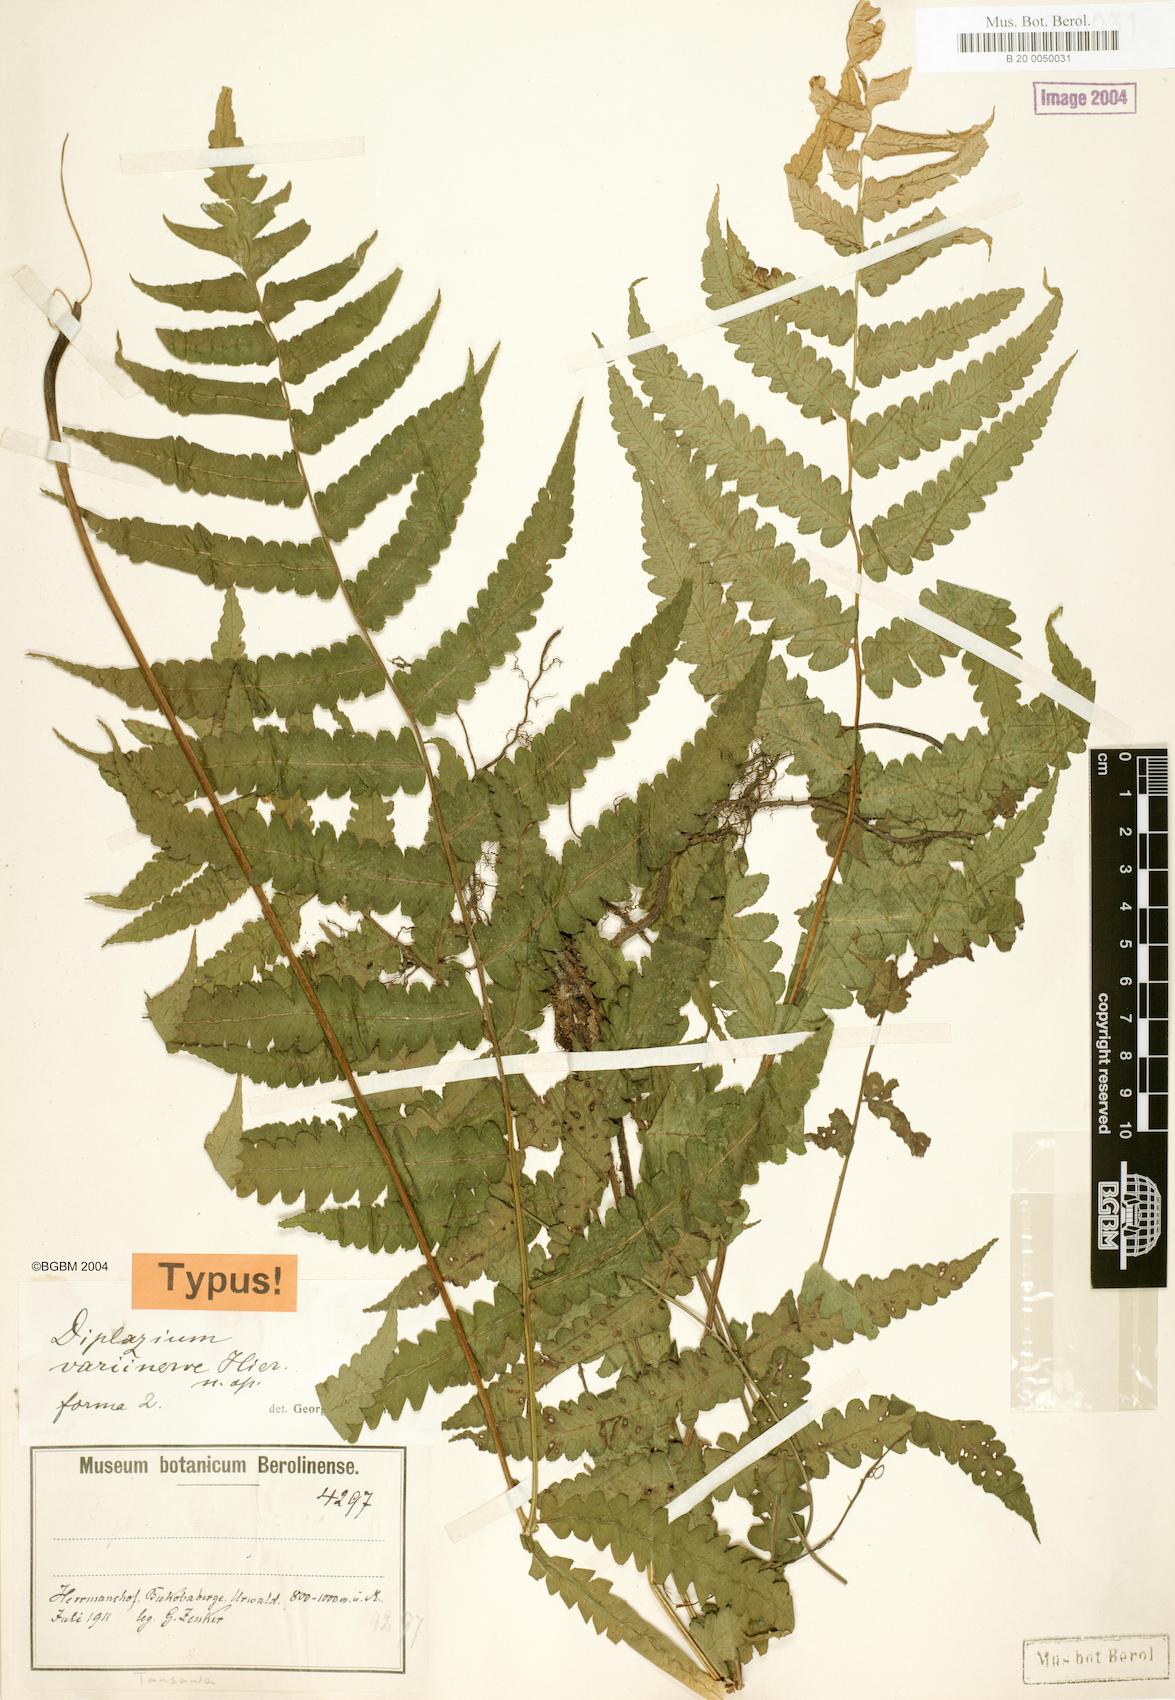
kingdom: Plantae
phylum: Tracheophyta
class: Polypodiopsida
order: Polypodiales
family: Athyriaceae
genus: Diplazium
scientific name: Diplazium welwitschii
